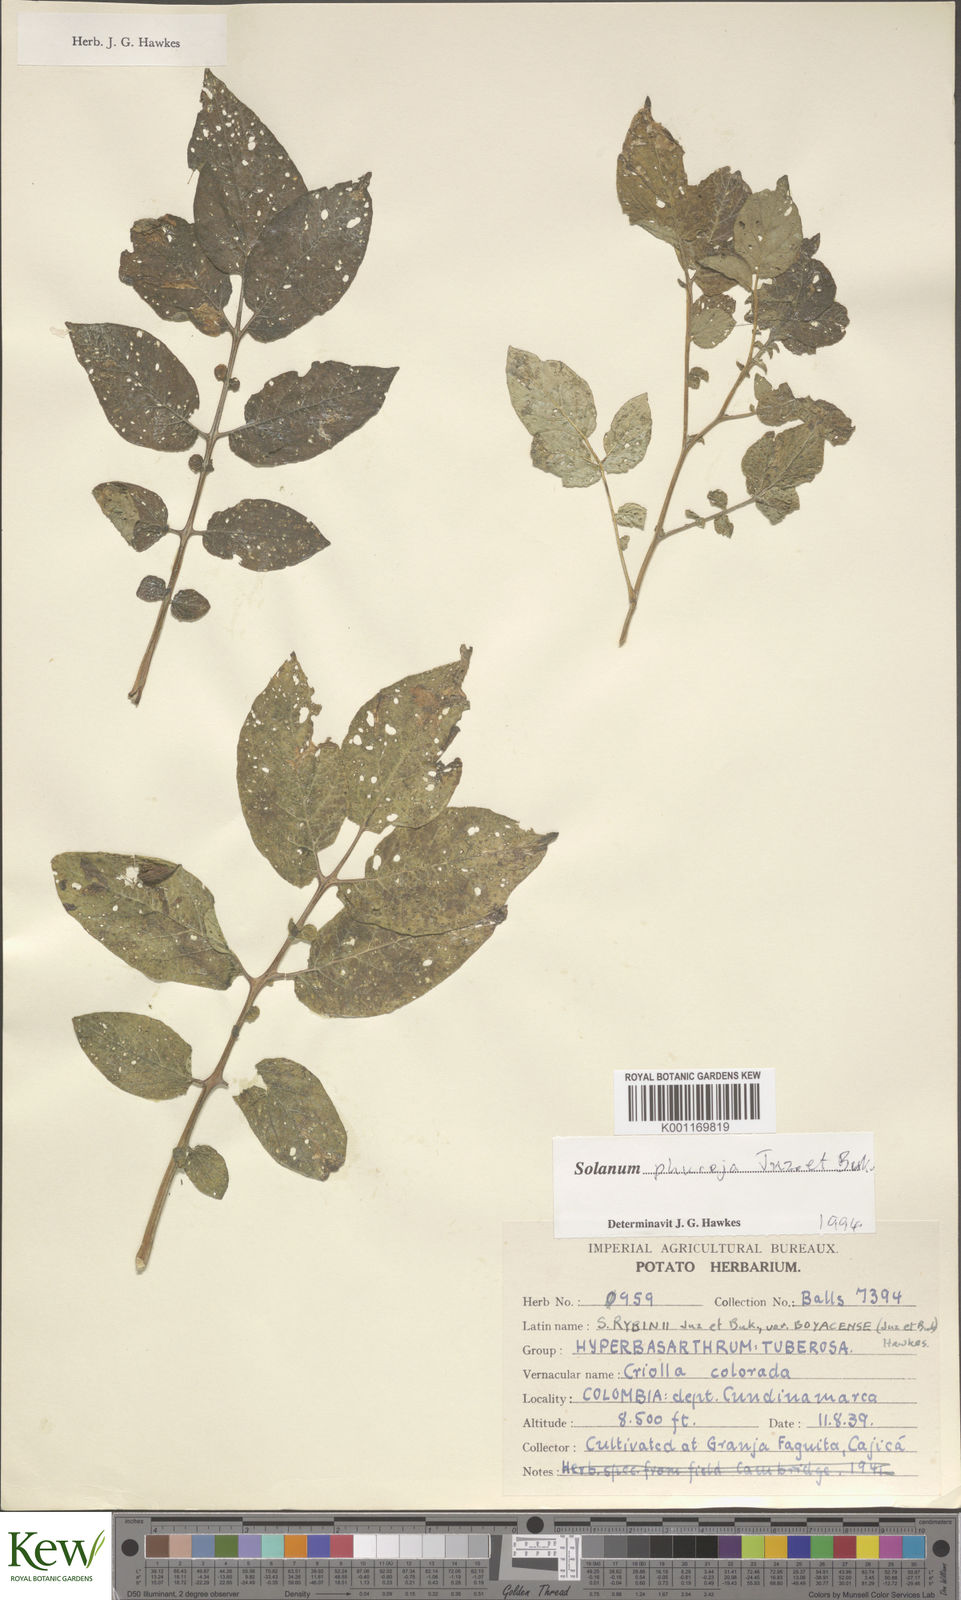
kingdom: Plantae
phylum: Tracheophyta
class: Magnoliopsida
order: Solanales
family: Solanaceae
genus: Solanum
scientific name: Solanum tuberosum
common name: Potato
